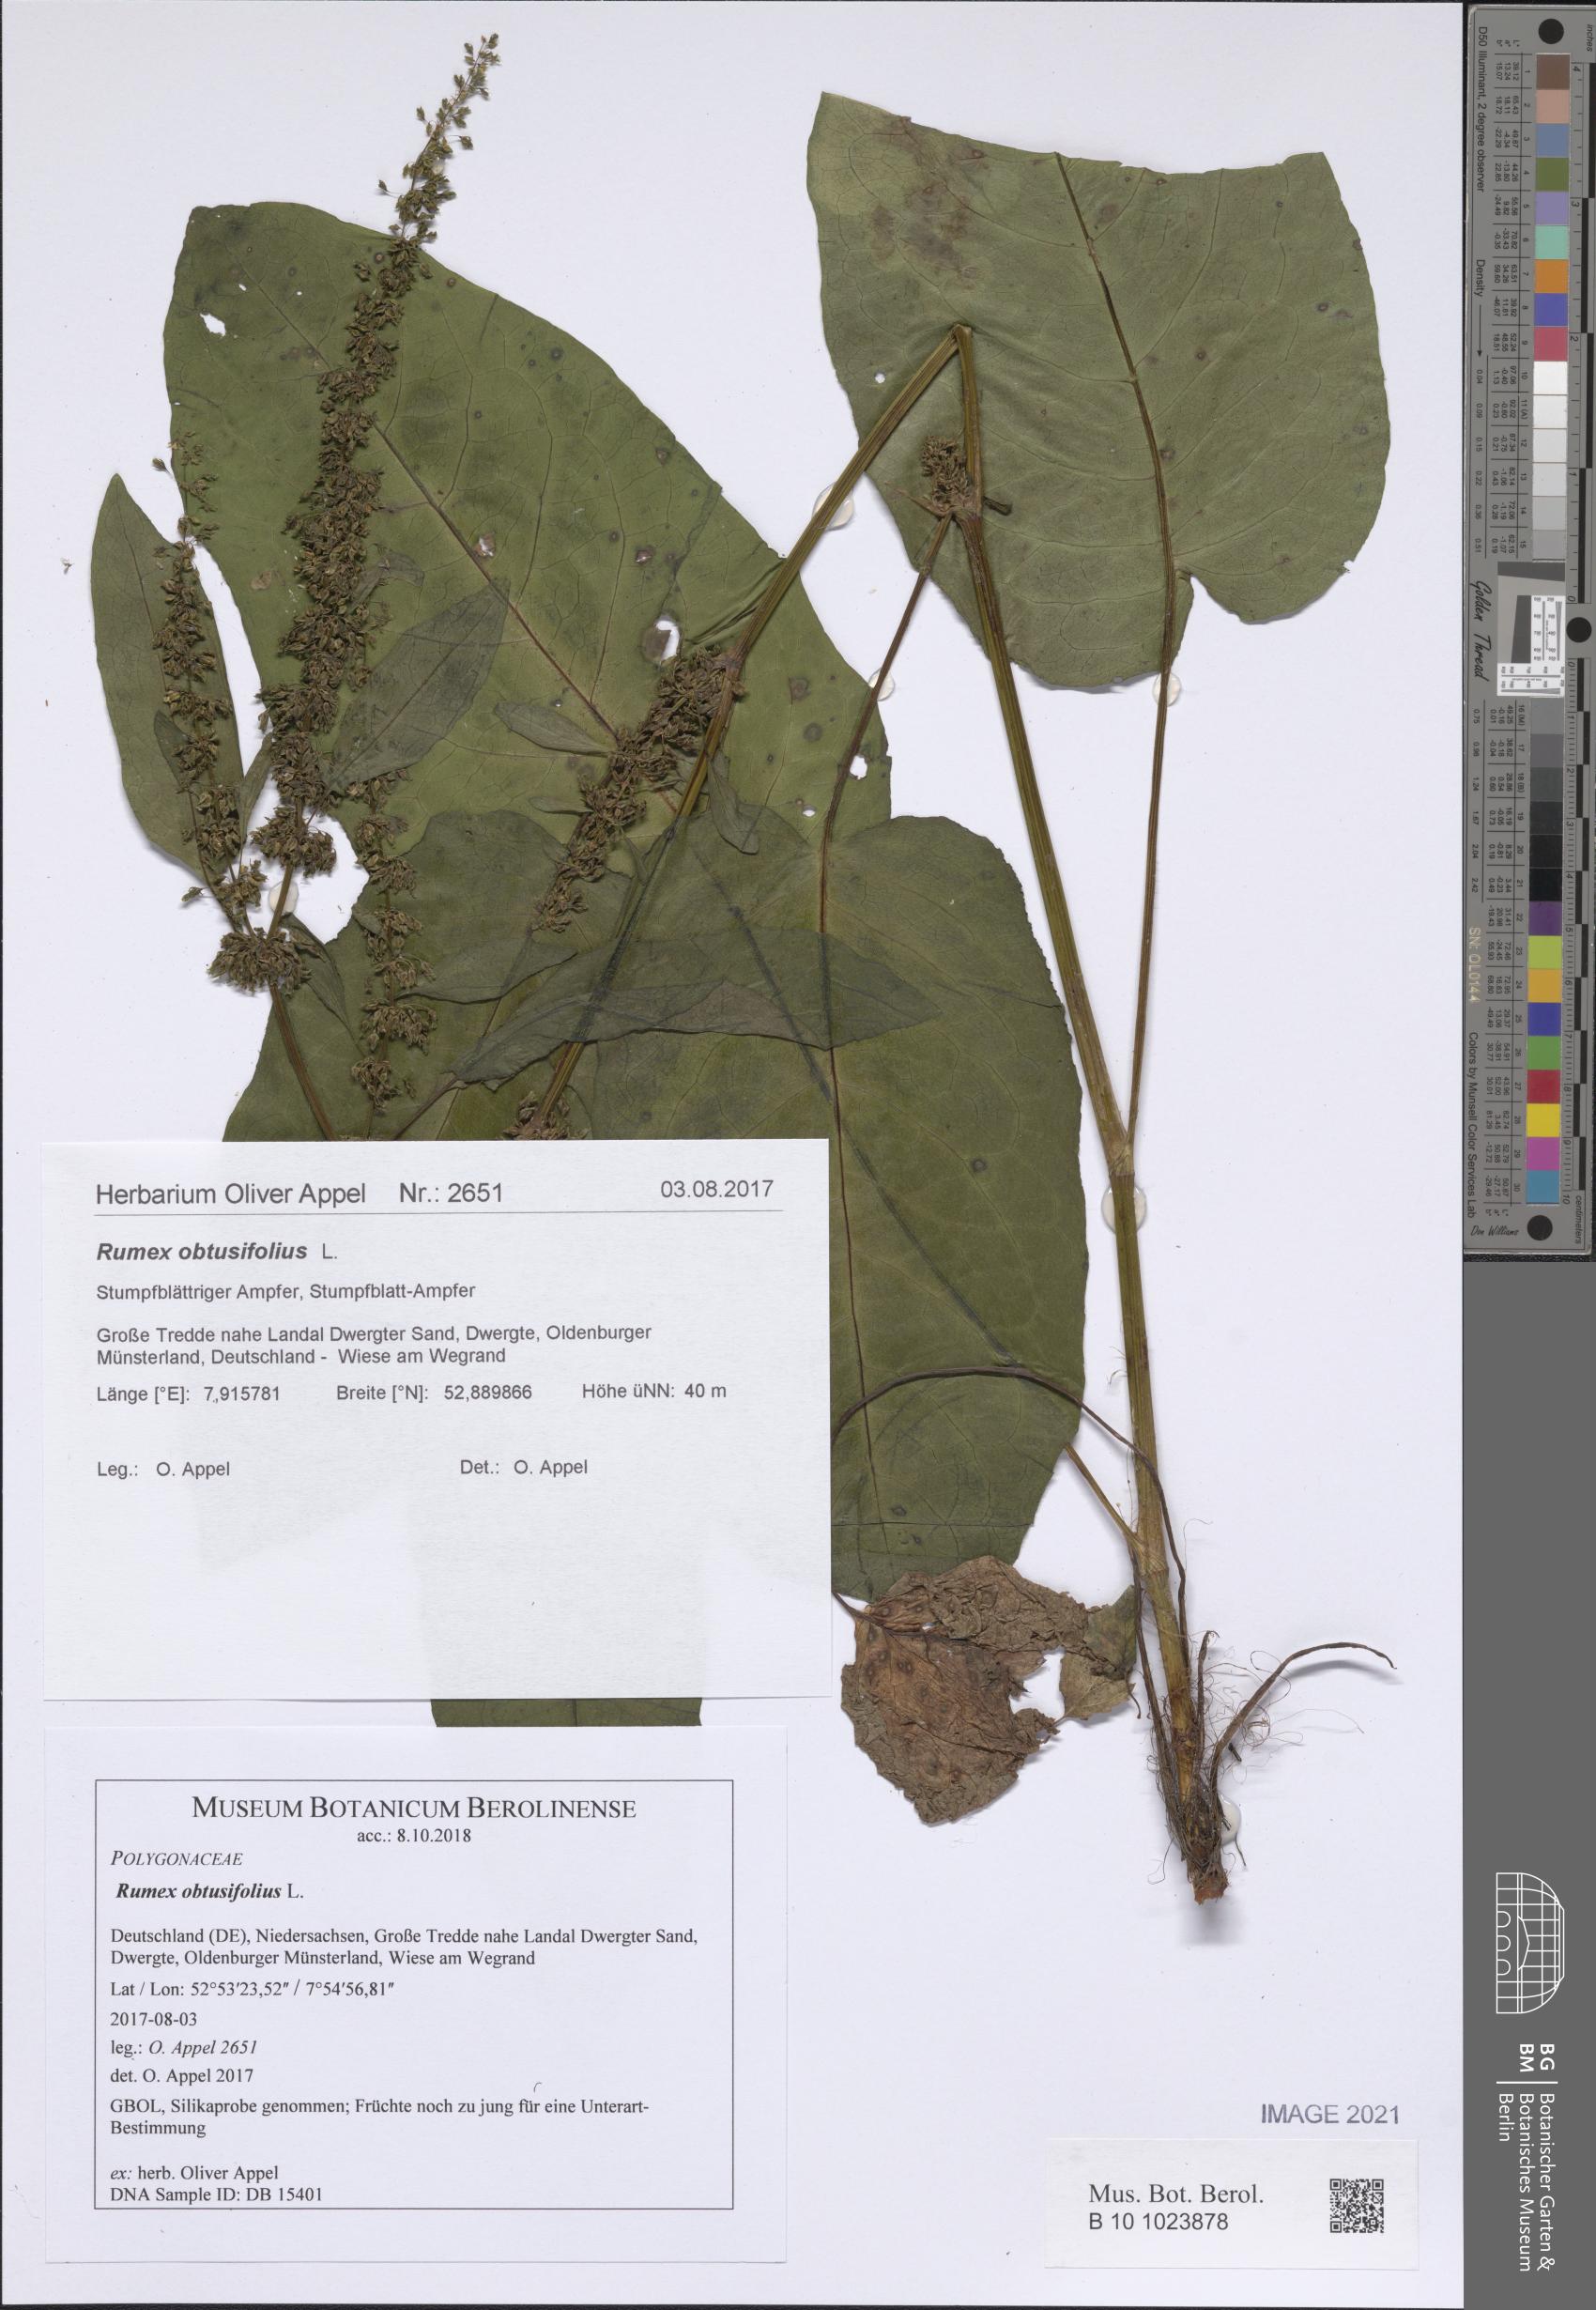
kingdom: Plantae
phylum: Tracheophyta
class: Magnoliopsida
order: Caryophyllales
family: Polygonaceae
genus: Rumex
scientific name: Rumex obtusifolius
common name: Bitter dock
